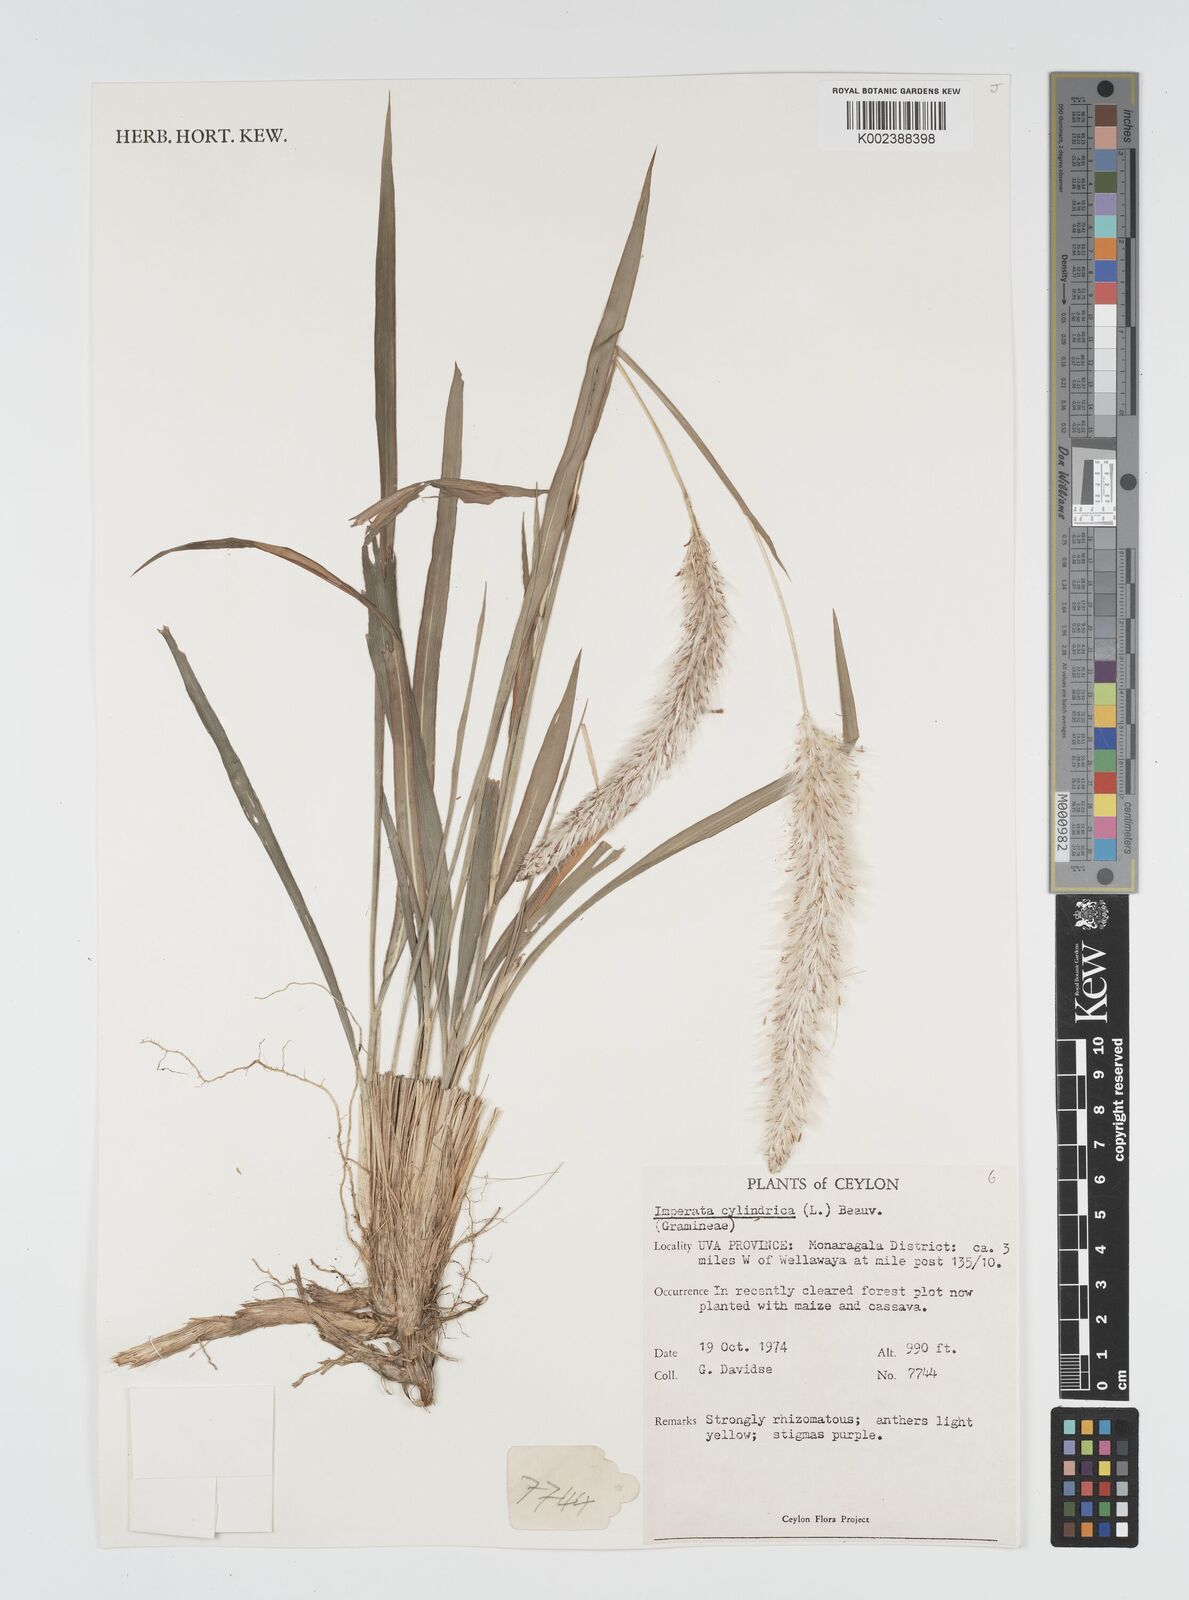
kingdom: Plantae
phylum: Tracheophyta
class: Liliopsida
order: Poales
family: Poaceae
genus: Imperata
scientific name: Imperata cylindrica
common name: Cogongrass
